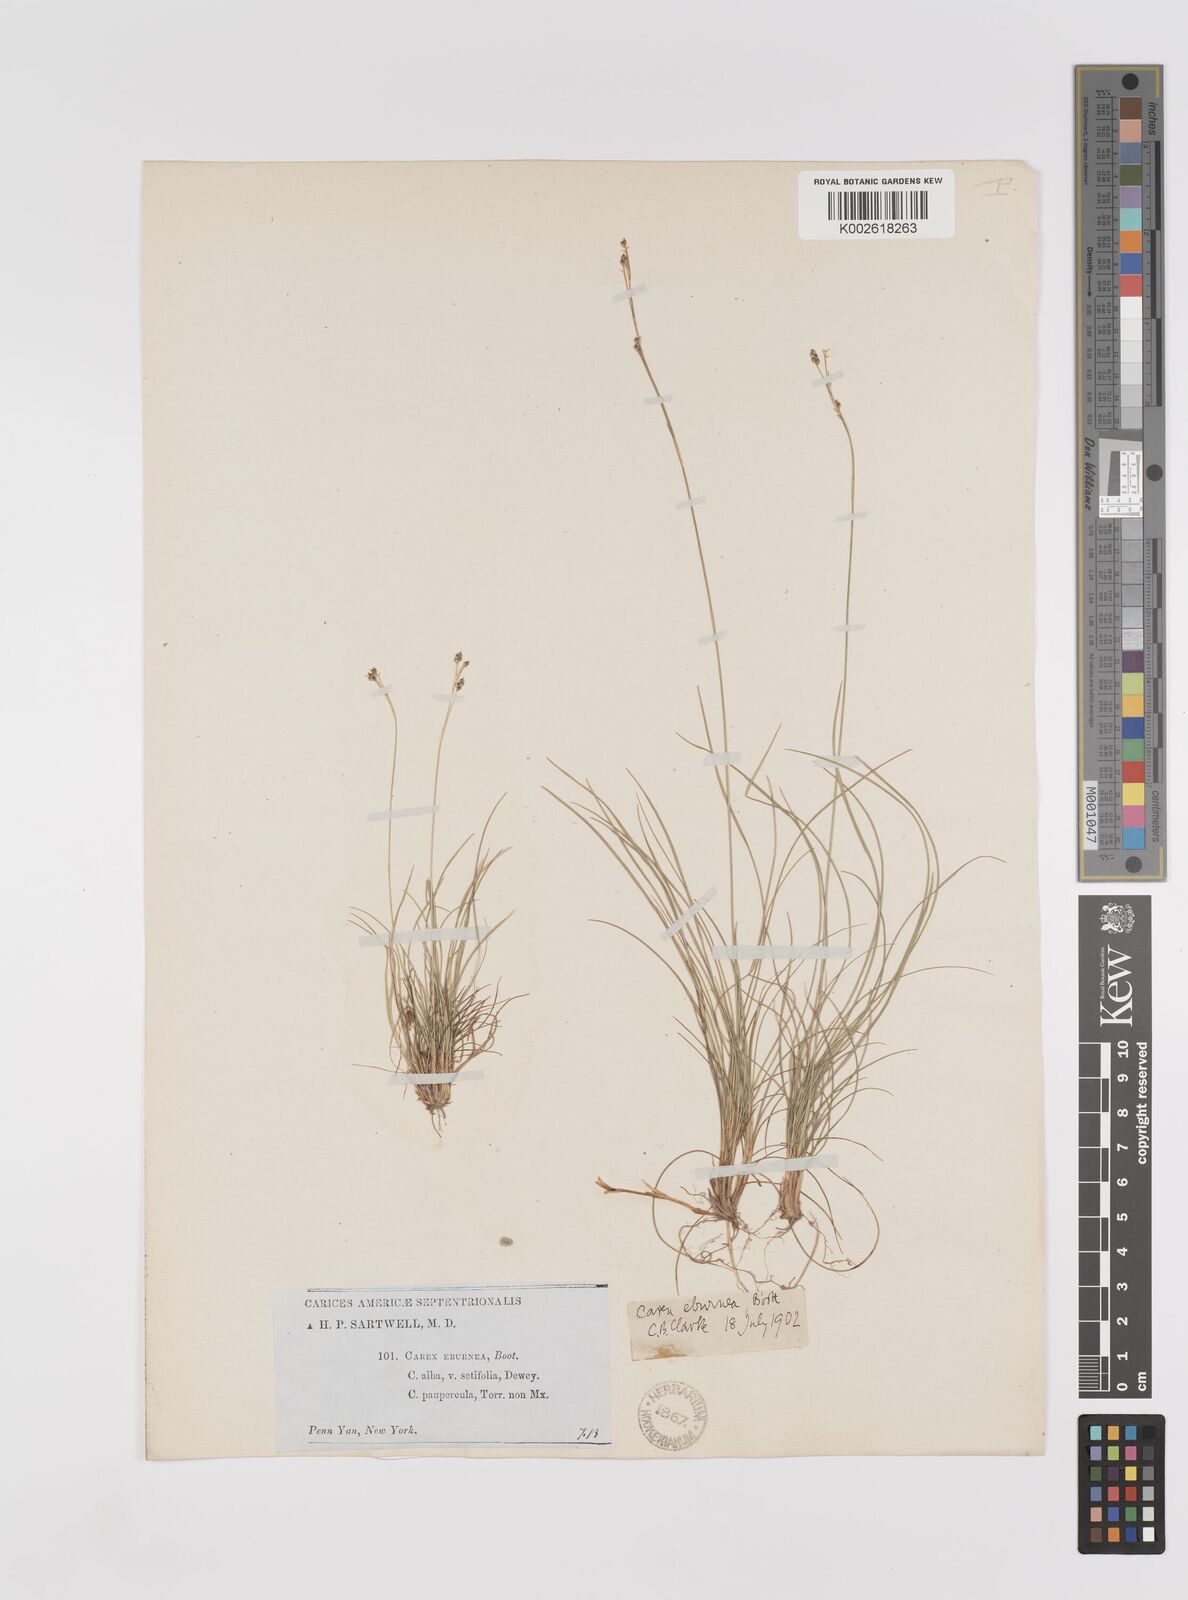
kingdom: Plantae
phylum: Tracheophyta
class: Liliopsida
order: Poales
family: Cyperaceae
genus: Carex
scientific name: Carex eburnea
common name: Bristle-leaved sedge
